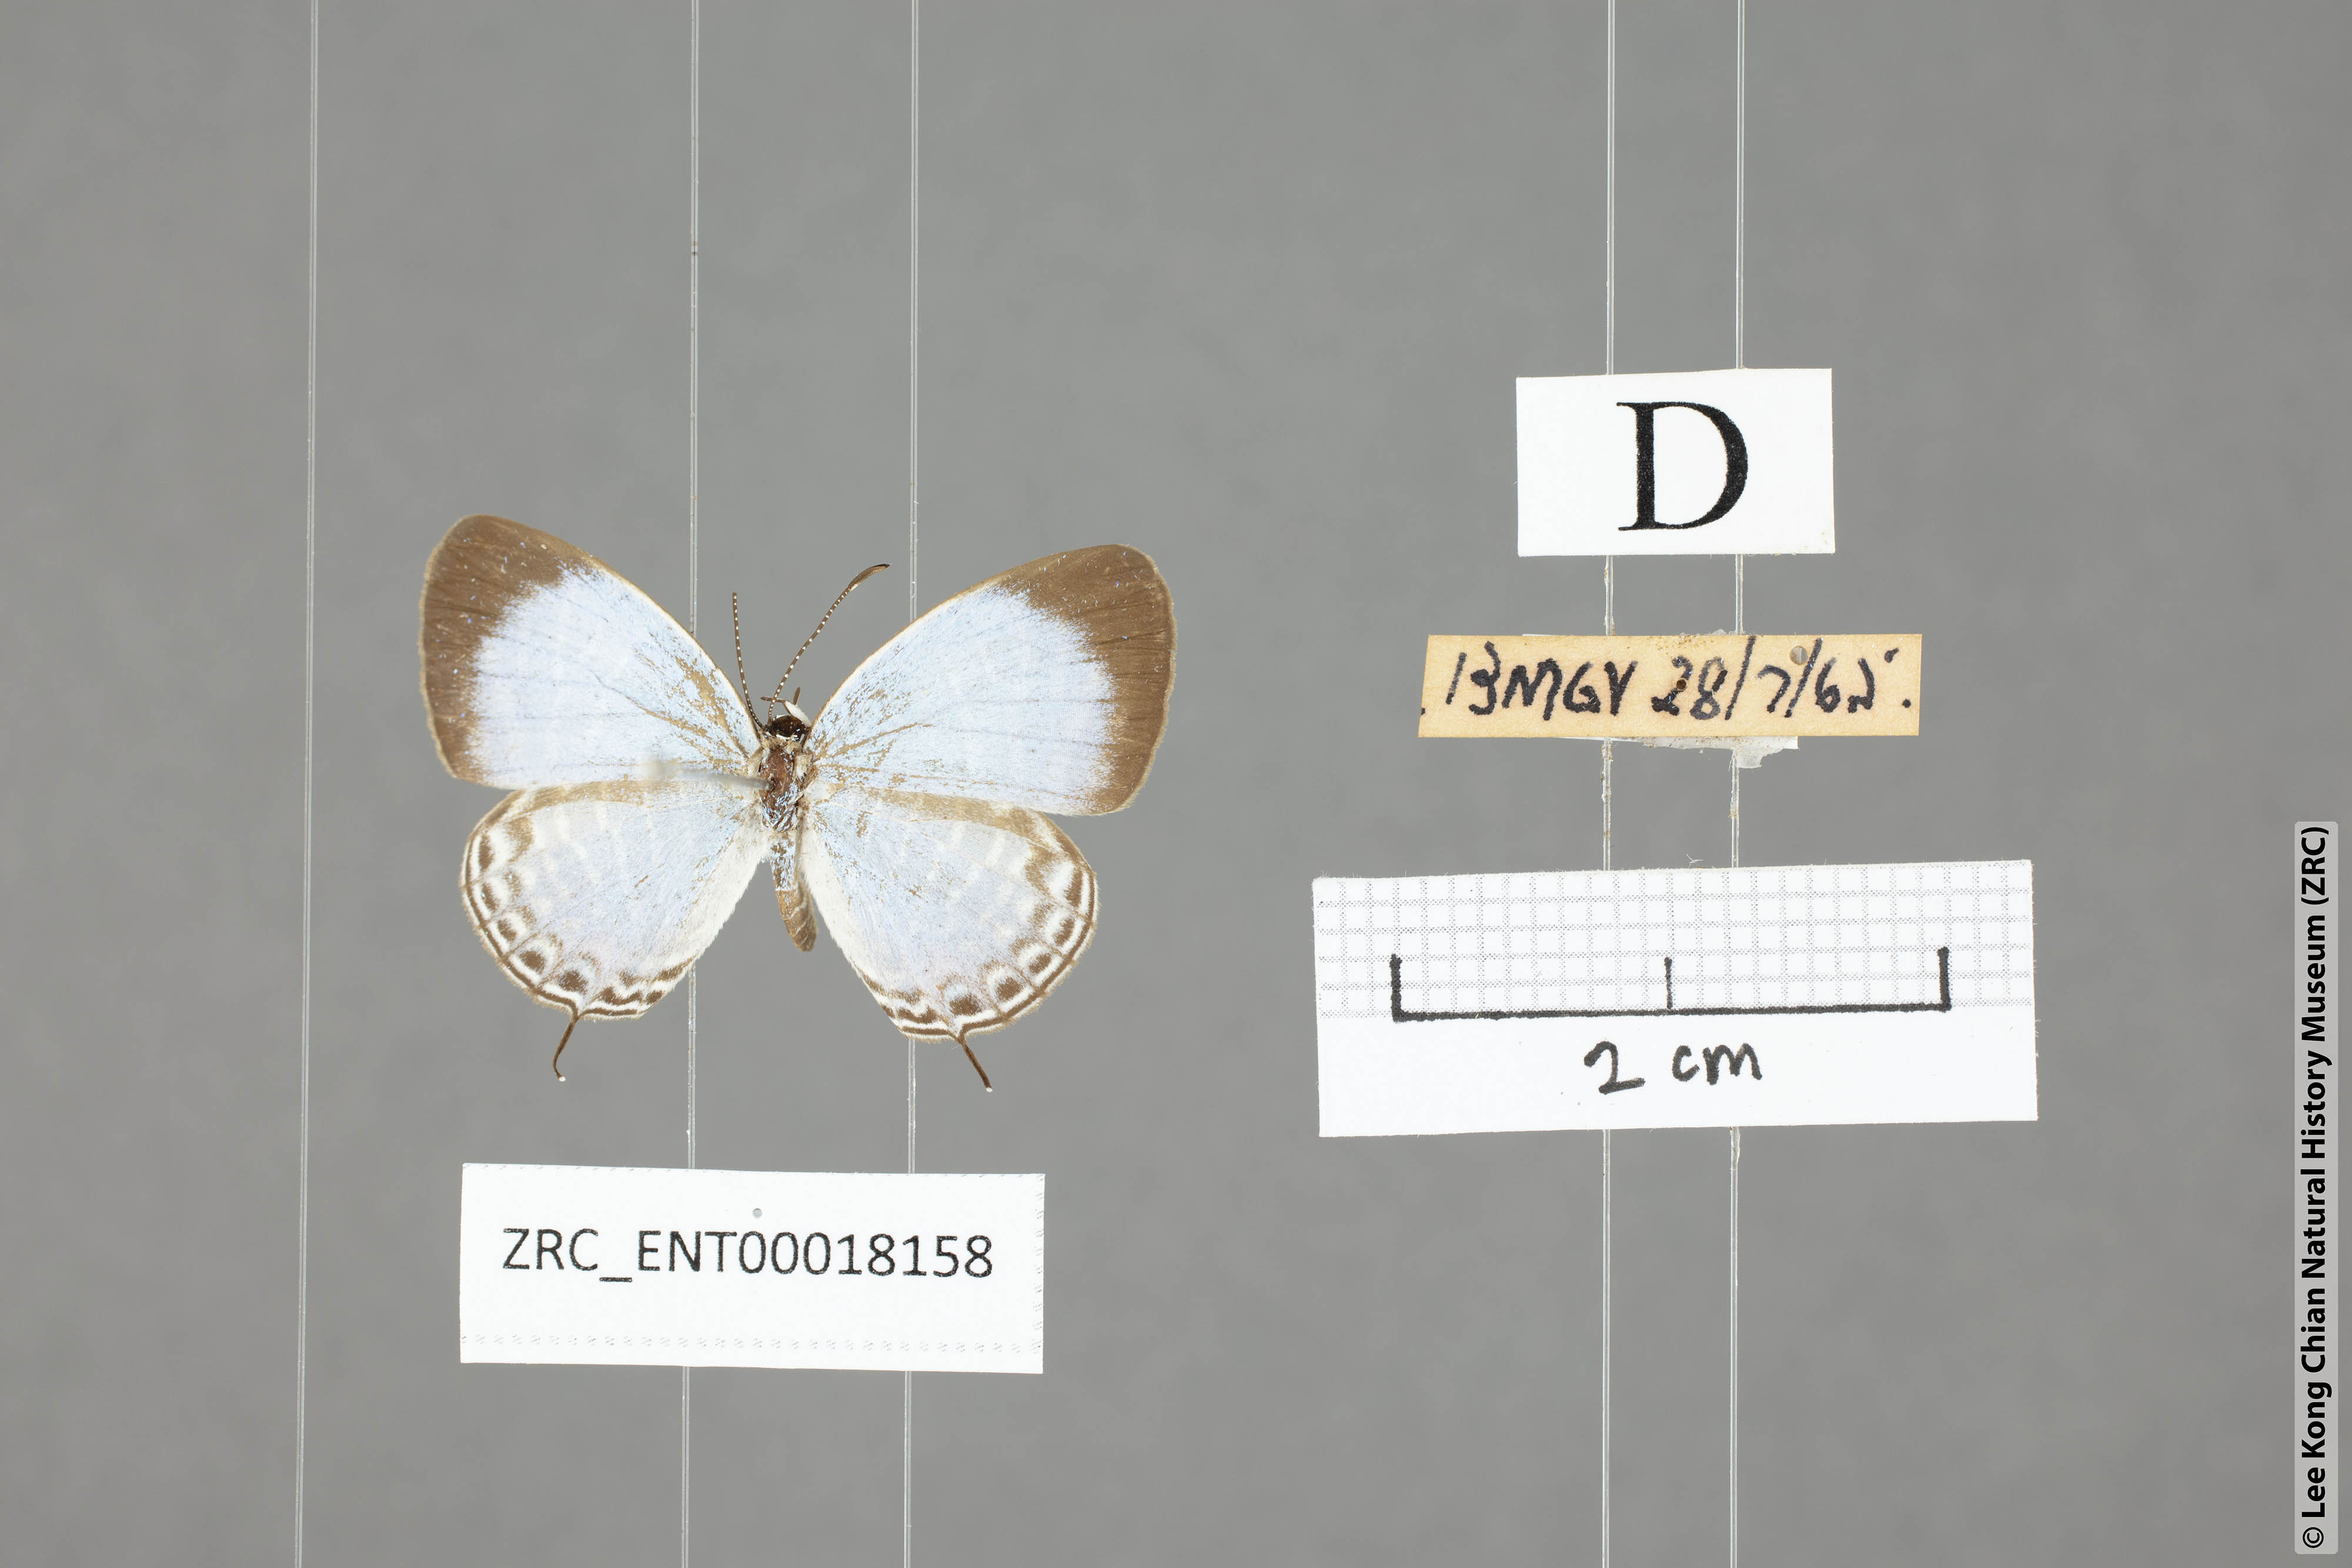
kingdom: Animalia
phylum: Arthropoda
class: Insecta
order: Lepidoptera
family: Lycaenidae
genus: Jamides
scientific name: Jamides parasaturata
